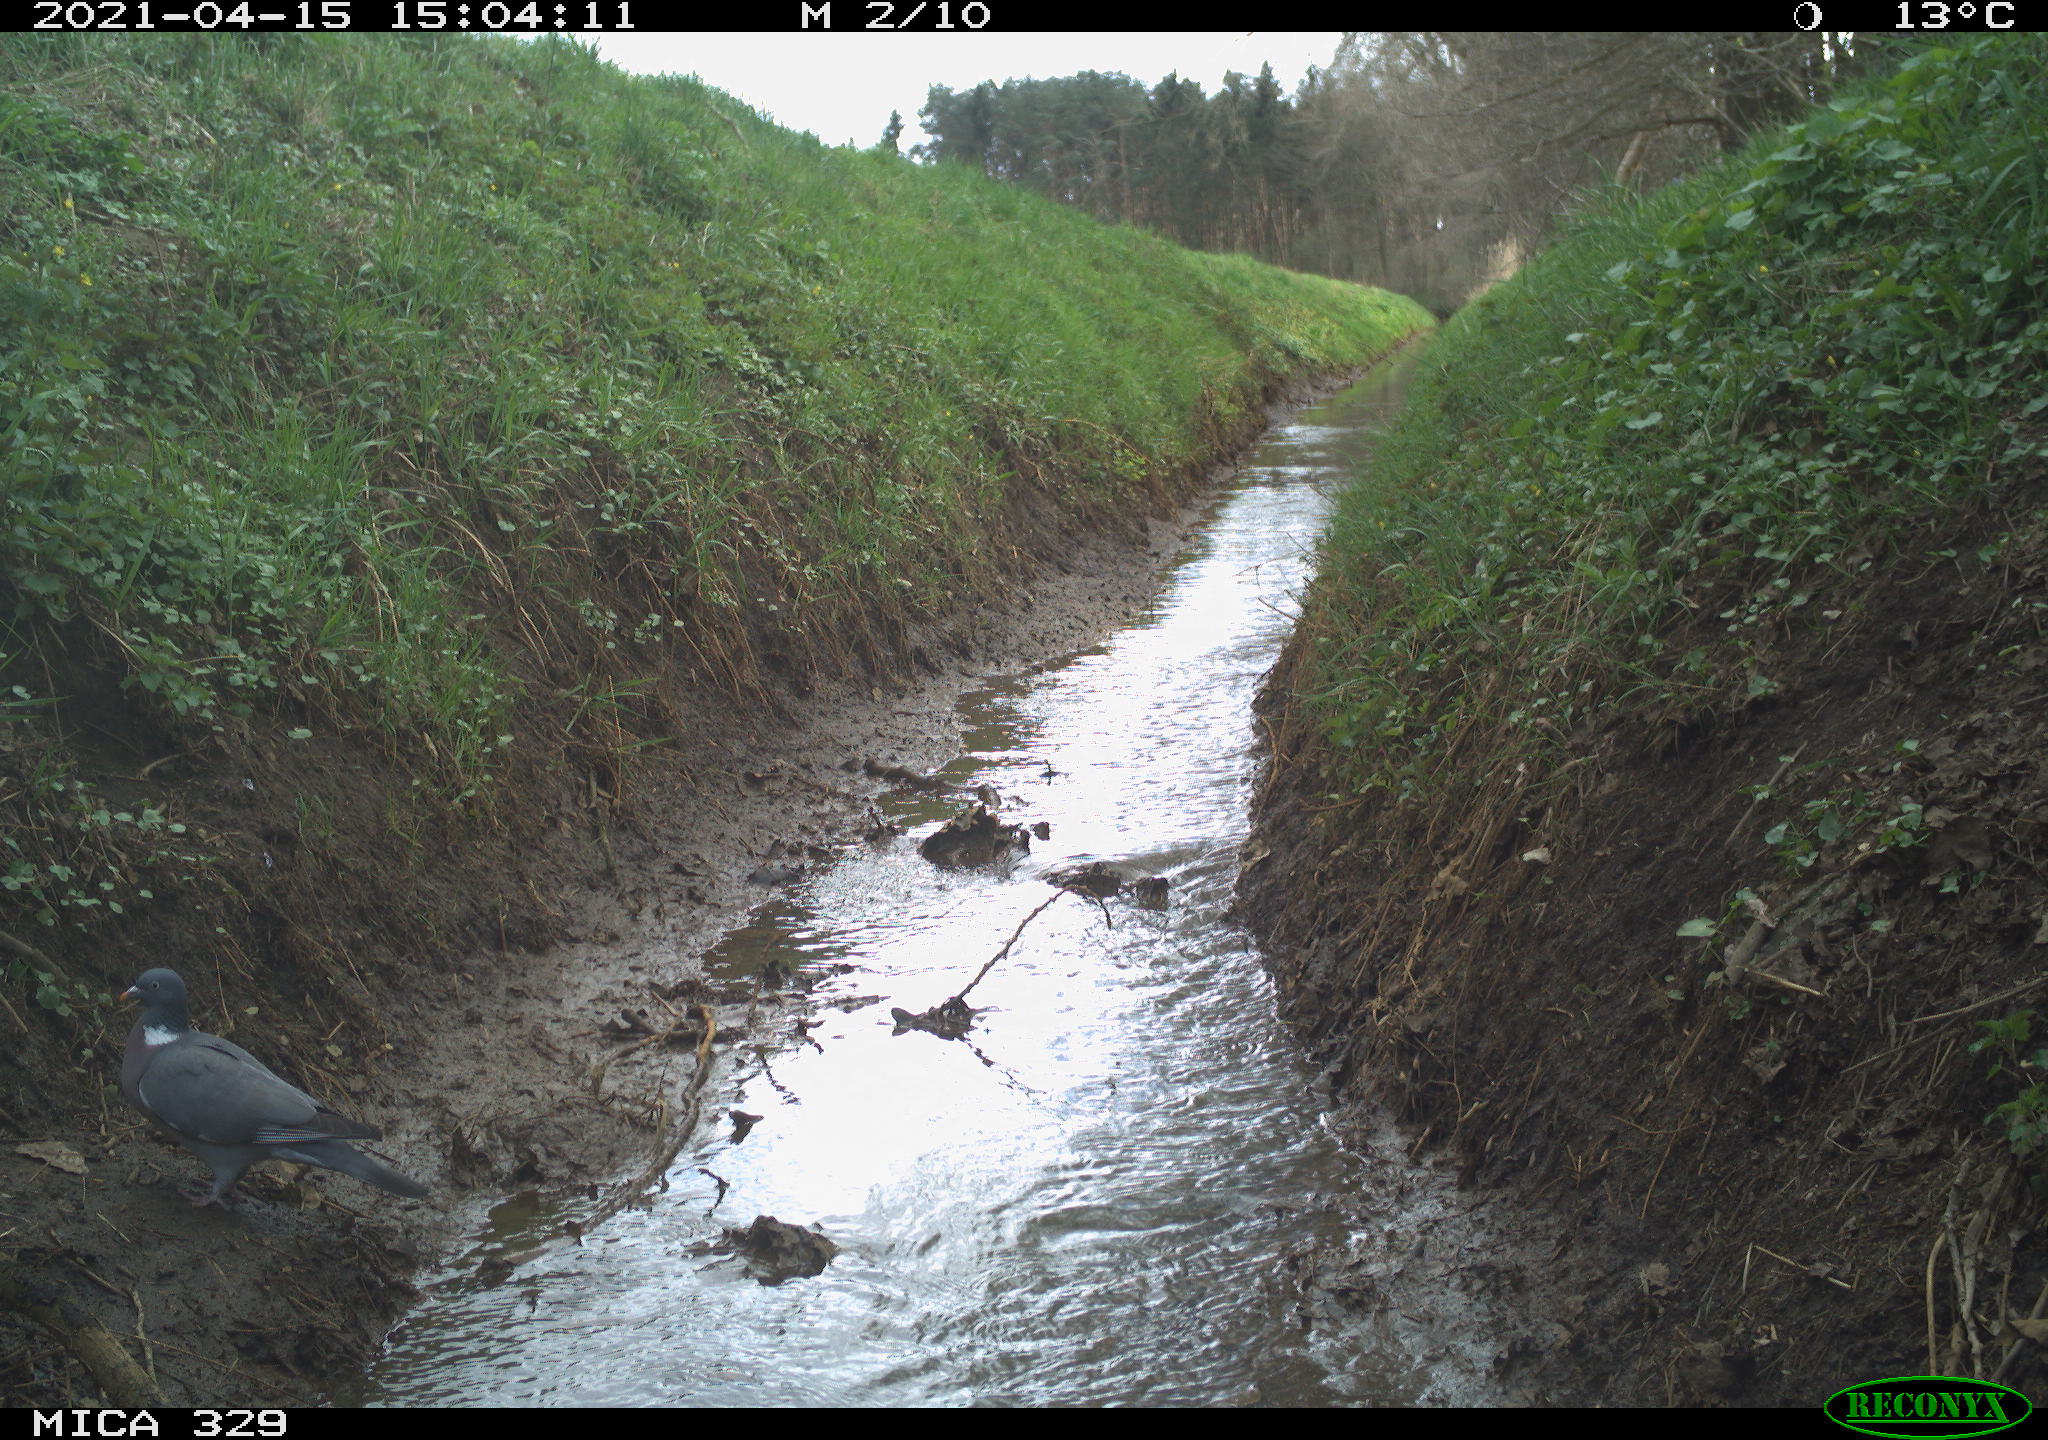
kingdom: Animalia
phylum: Chordata
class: Aves
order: Columbiformes
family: Columbidae
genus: Columba
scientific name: Columba palumbus
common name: Common wood pigeon
